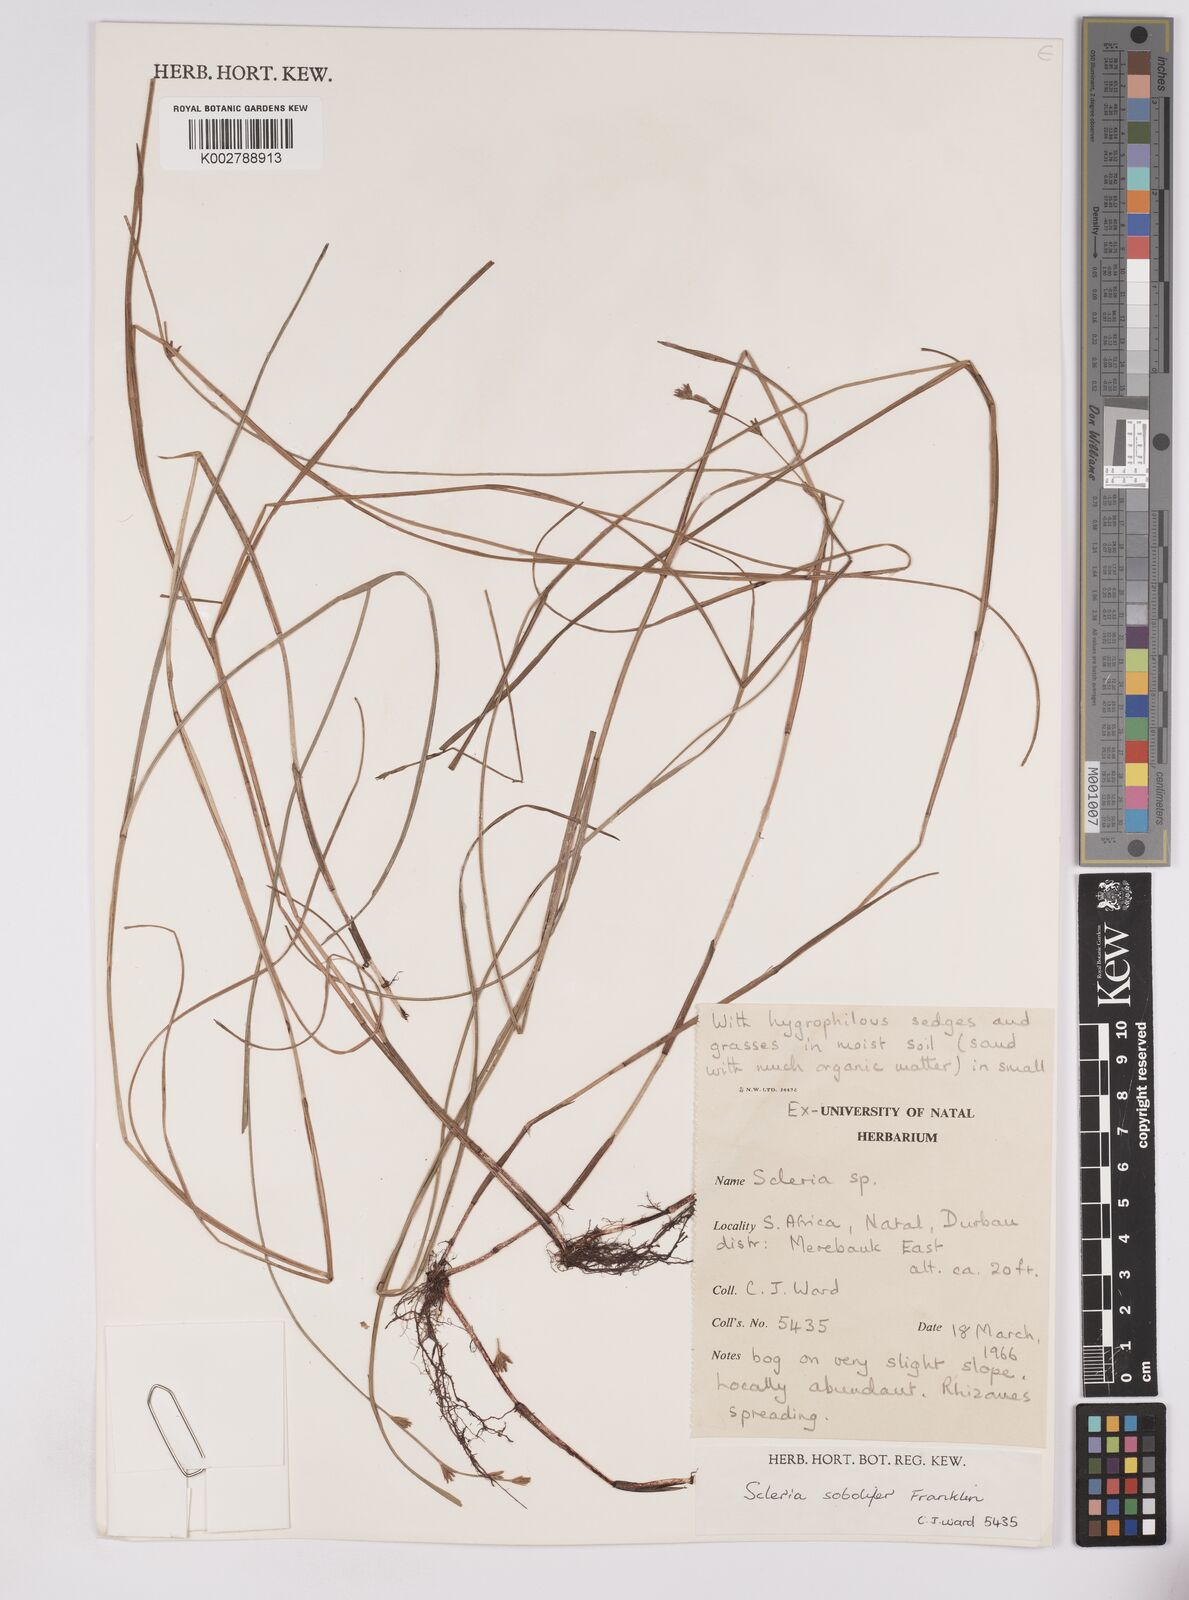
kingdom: Plantae
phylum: Tracheophyta
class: Liliopsida
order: Poales
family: Cyperaceae
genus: Scleria
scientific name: Scleria sobolifera
